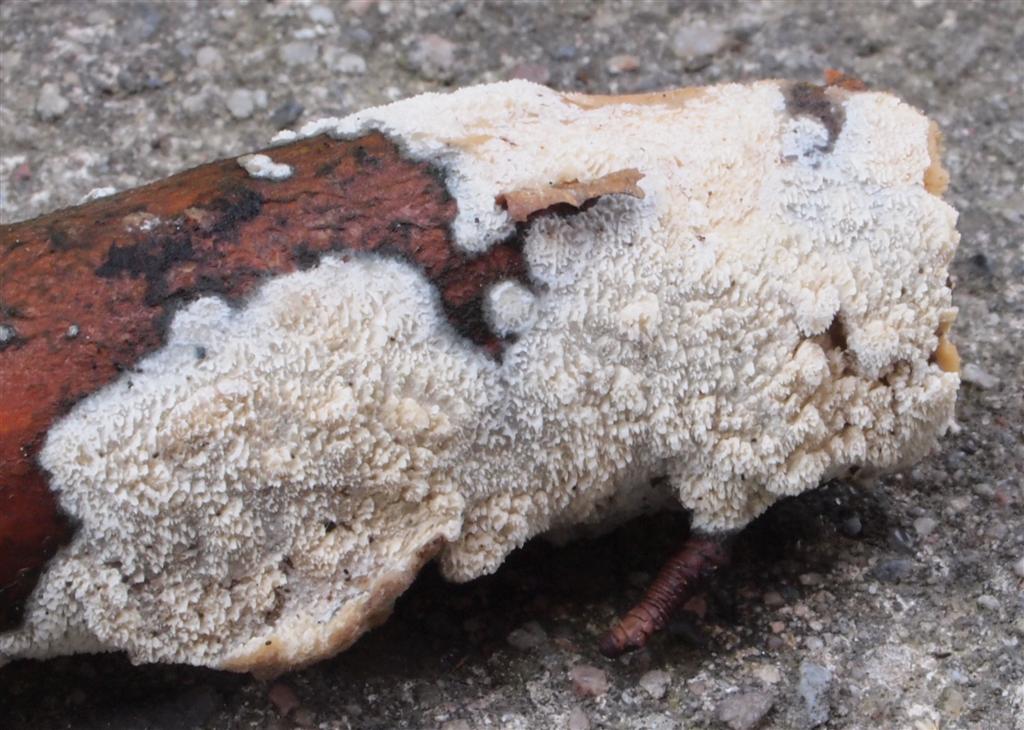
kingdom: Fungi
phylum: Basidiomycota
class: Agaricomycetes
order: Hymenochaetales
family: Schizoporaceae
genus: Schizopora
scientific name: Schizopora paradoxa
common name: hvid tandsvamp
